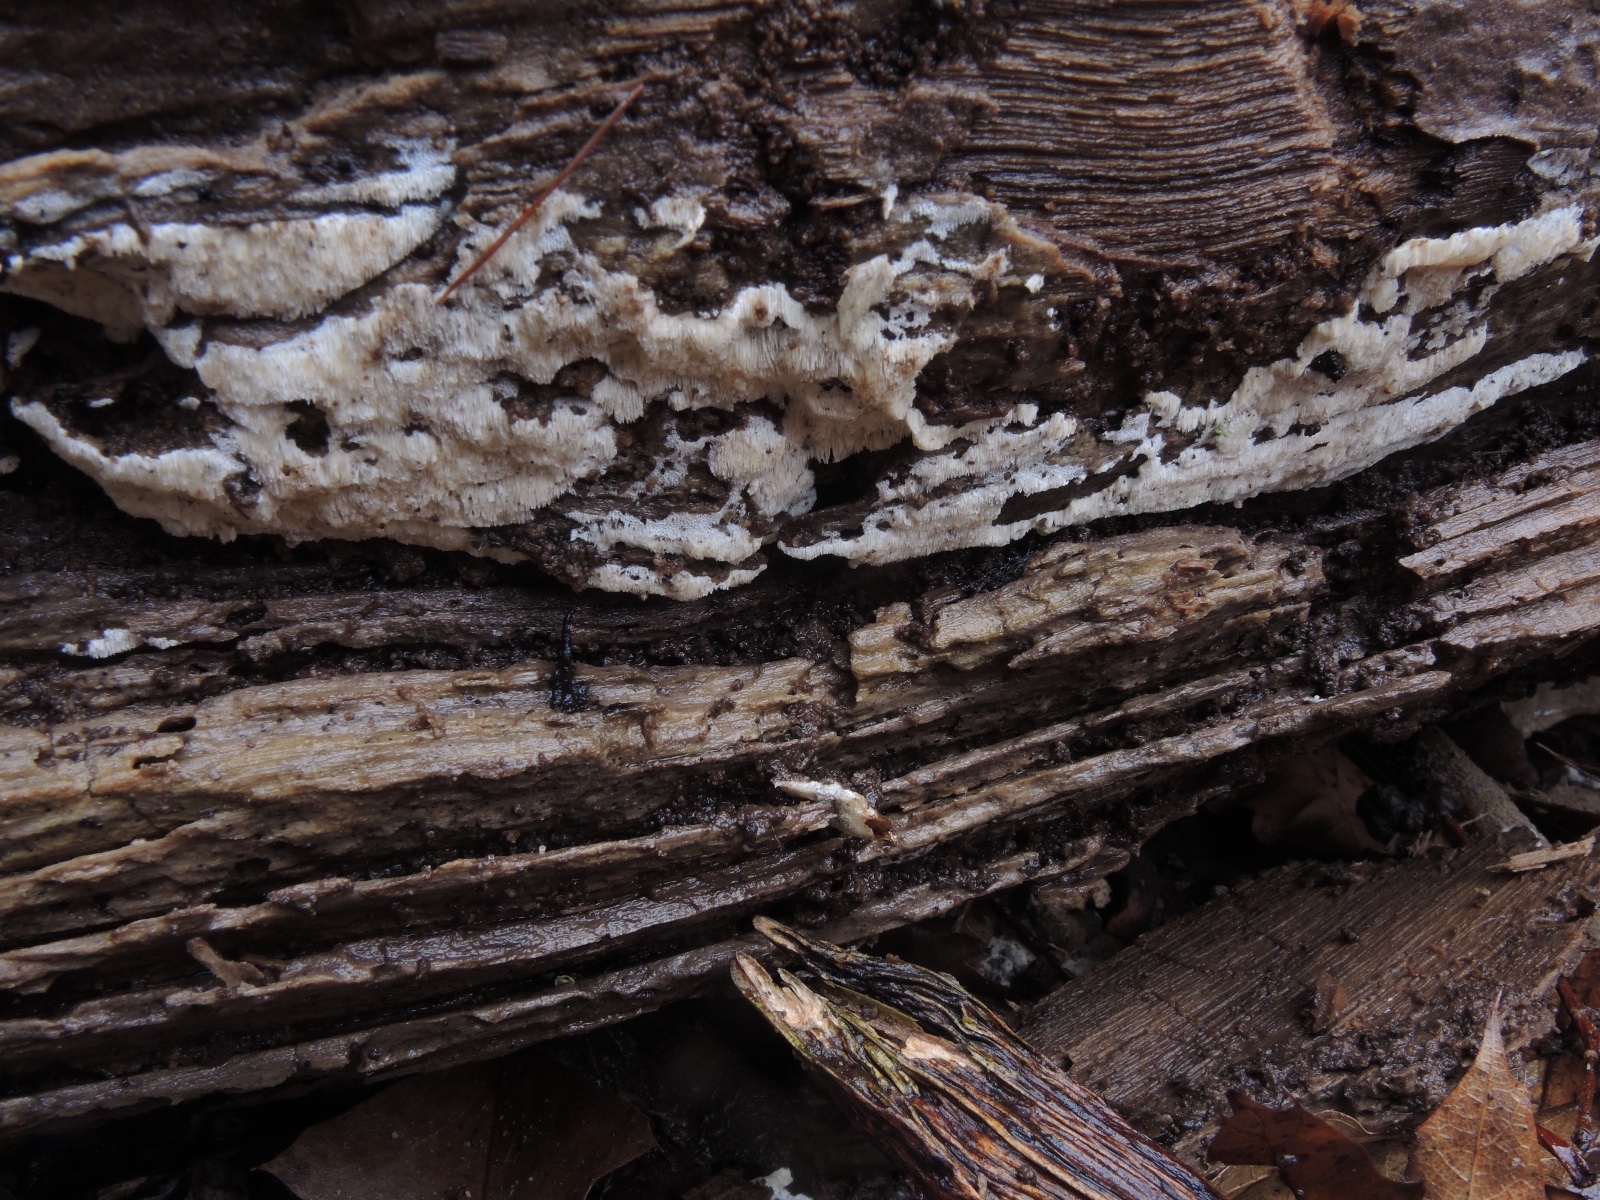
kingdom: Fungi
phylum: Basidiomycota
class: Agaricomycetes
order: Polyporales
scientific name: Polyporales
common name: poresvampordenen
